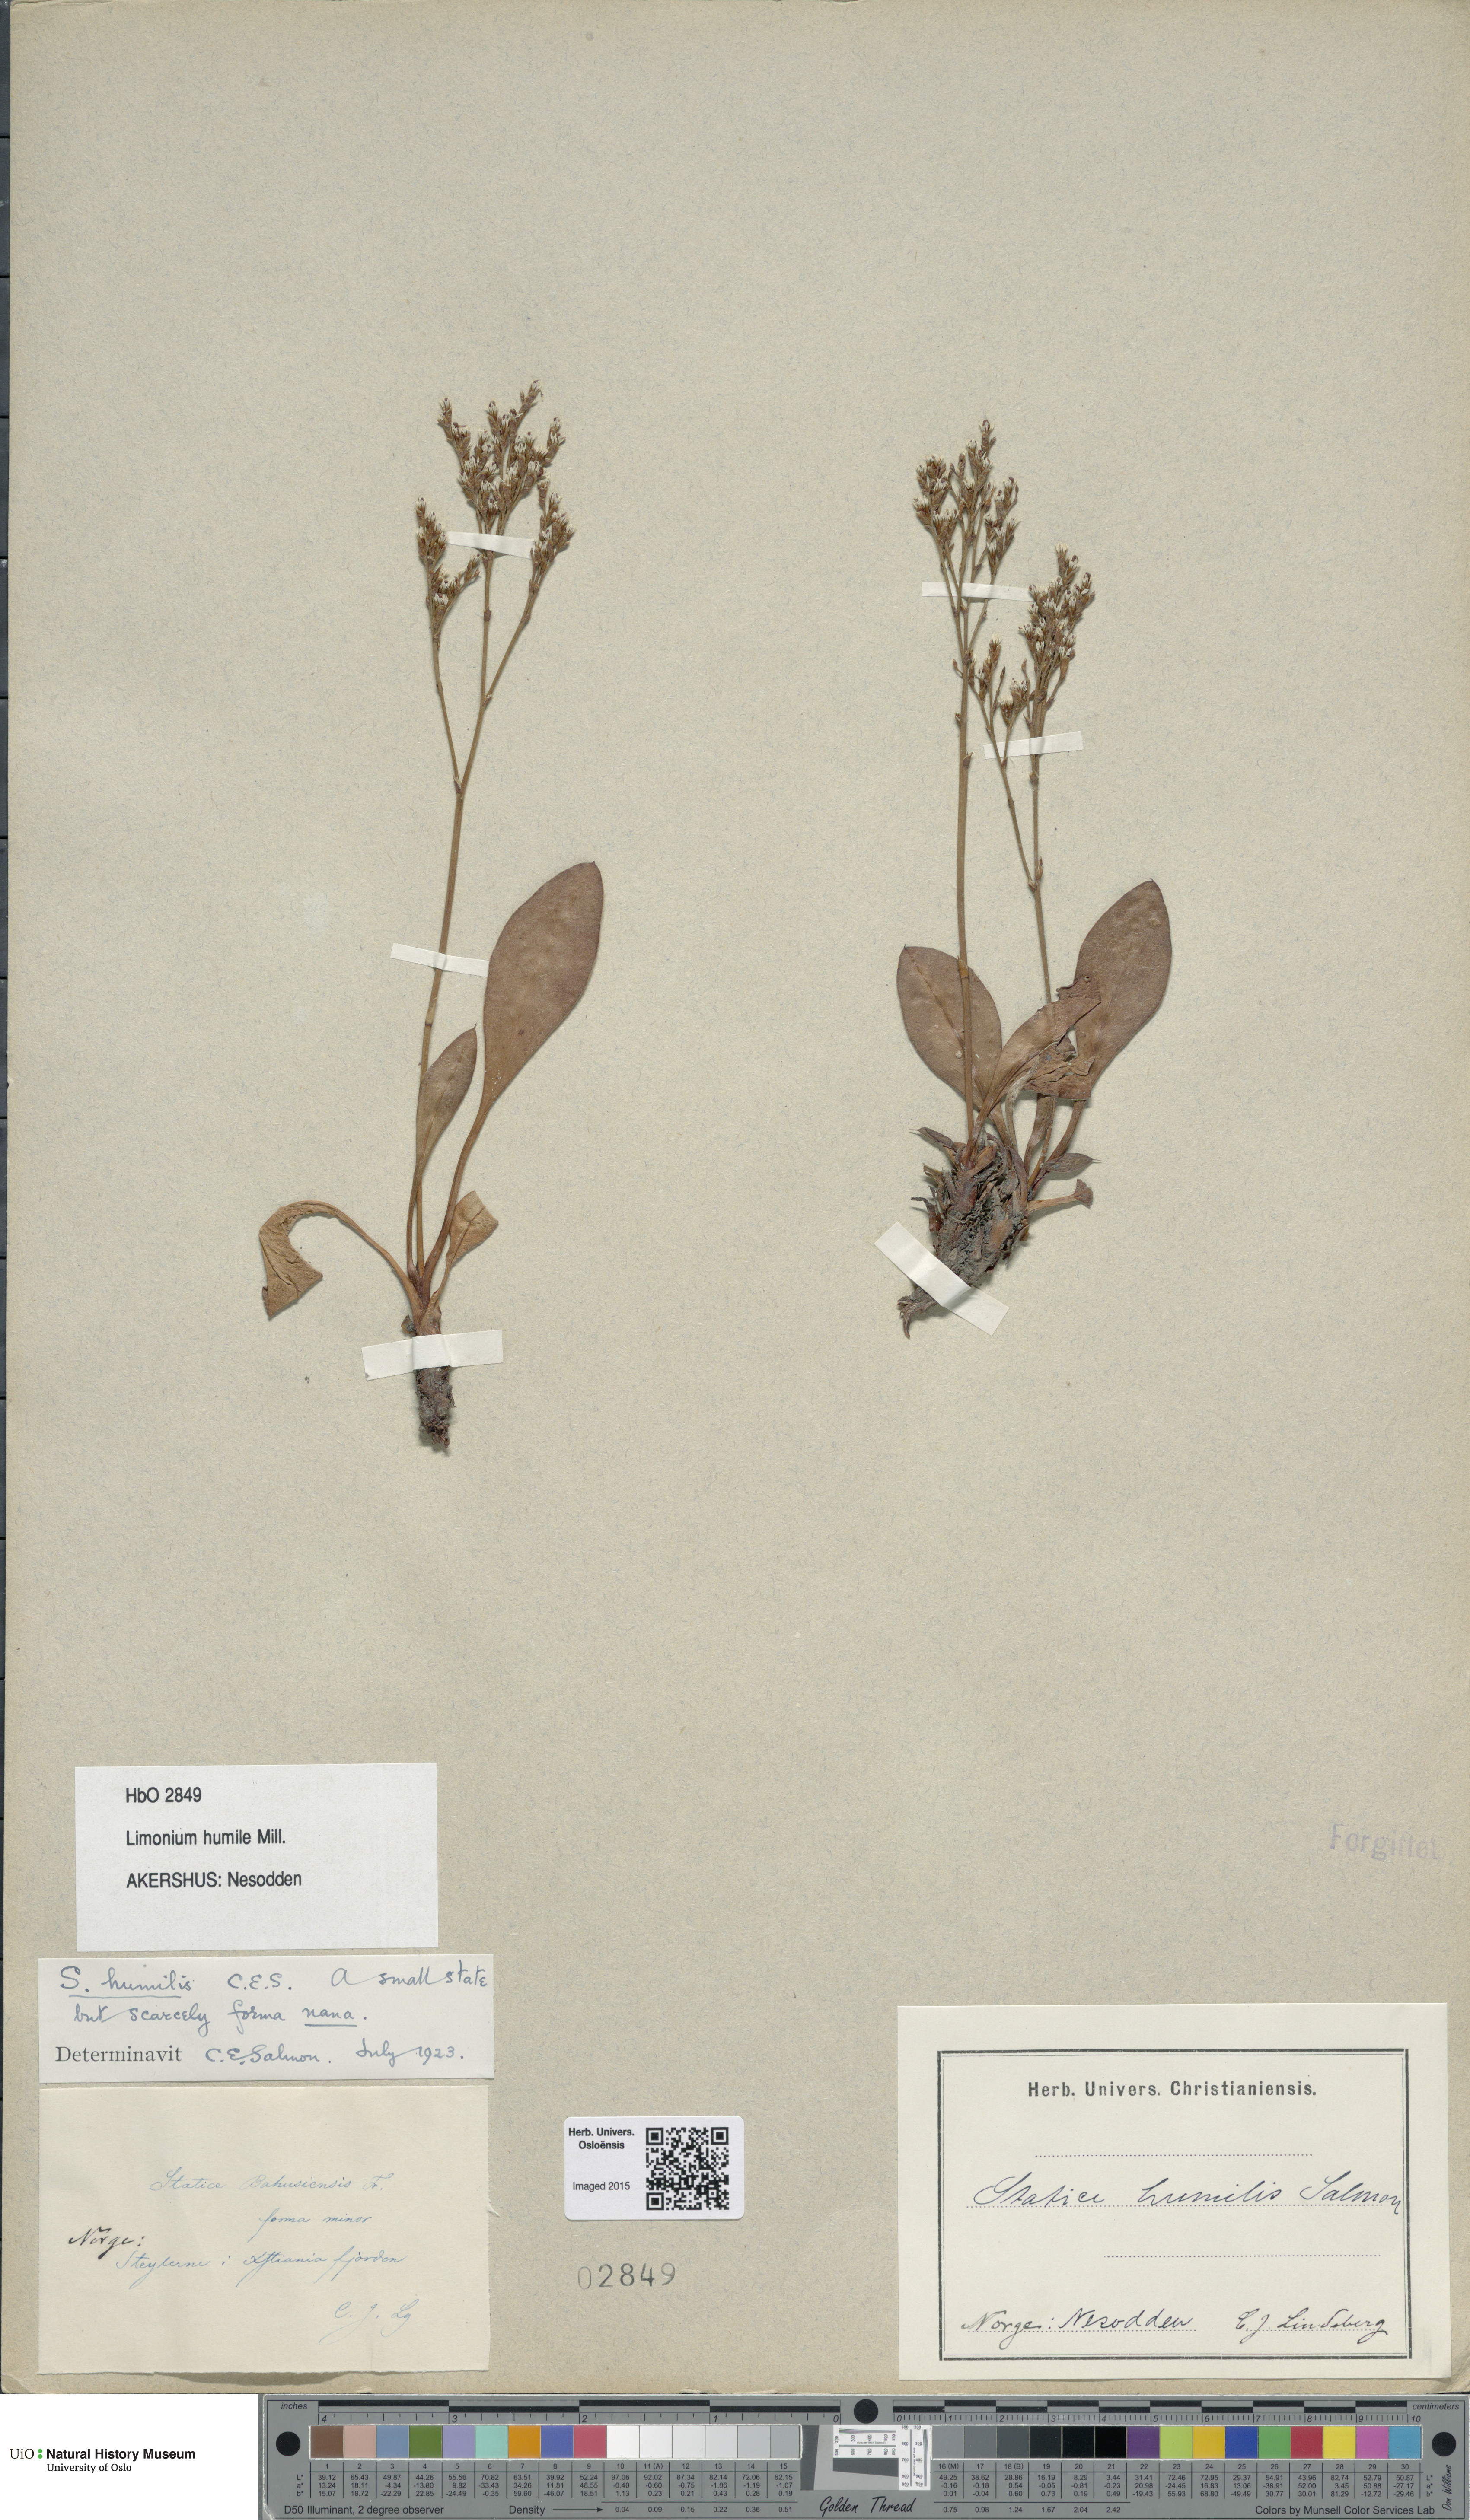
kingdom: Plantae
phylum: Tracheophyta
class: Magnoliopsida
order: Caryophyllales
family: Plumbaginaceae
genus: Limonium
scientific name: Limonium humile
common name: Lax-flowered sea-lavender
